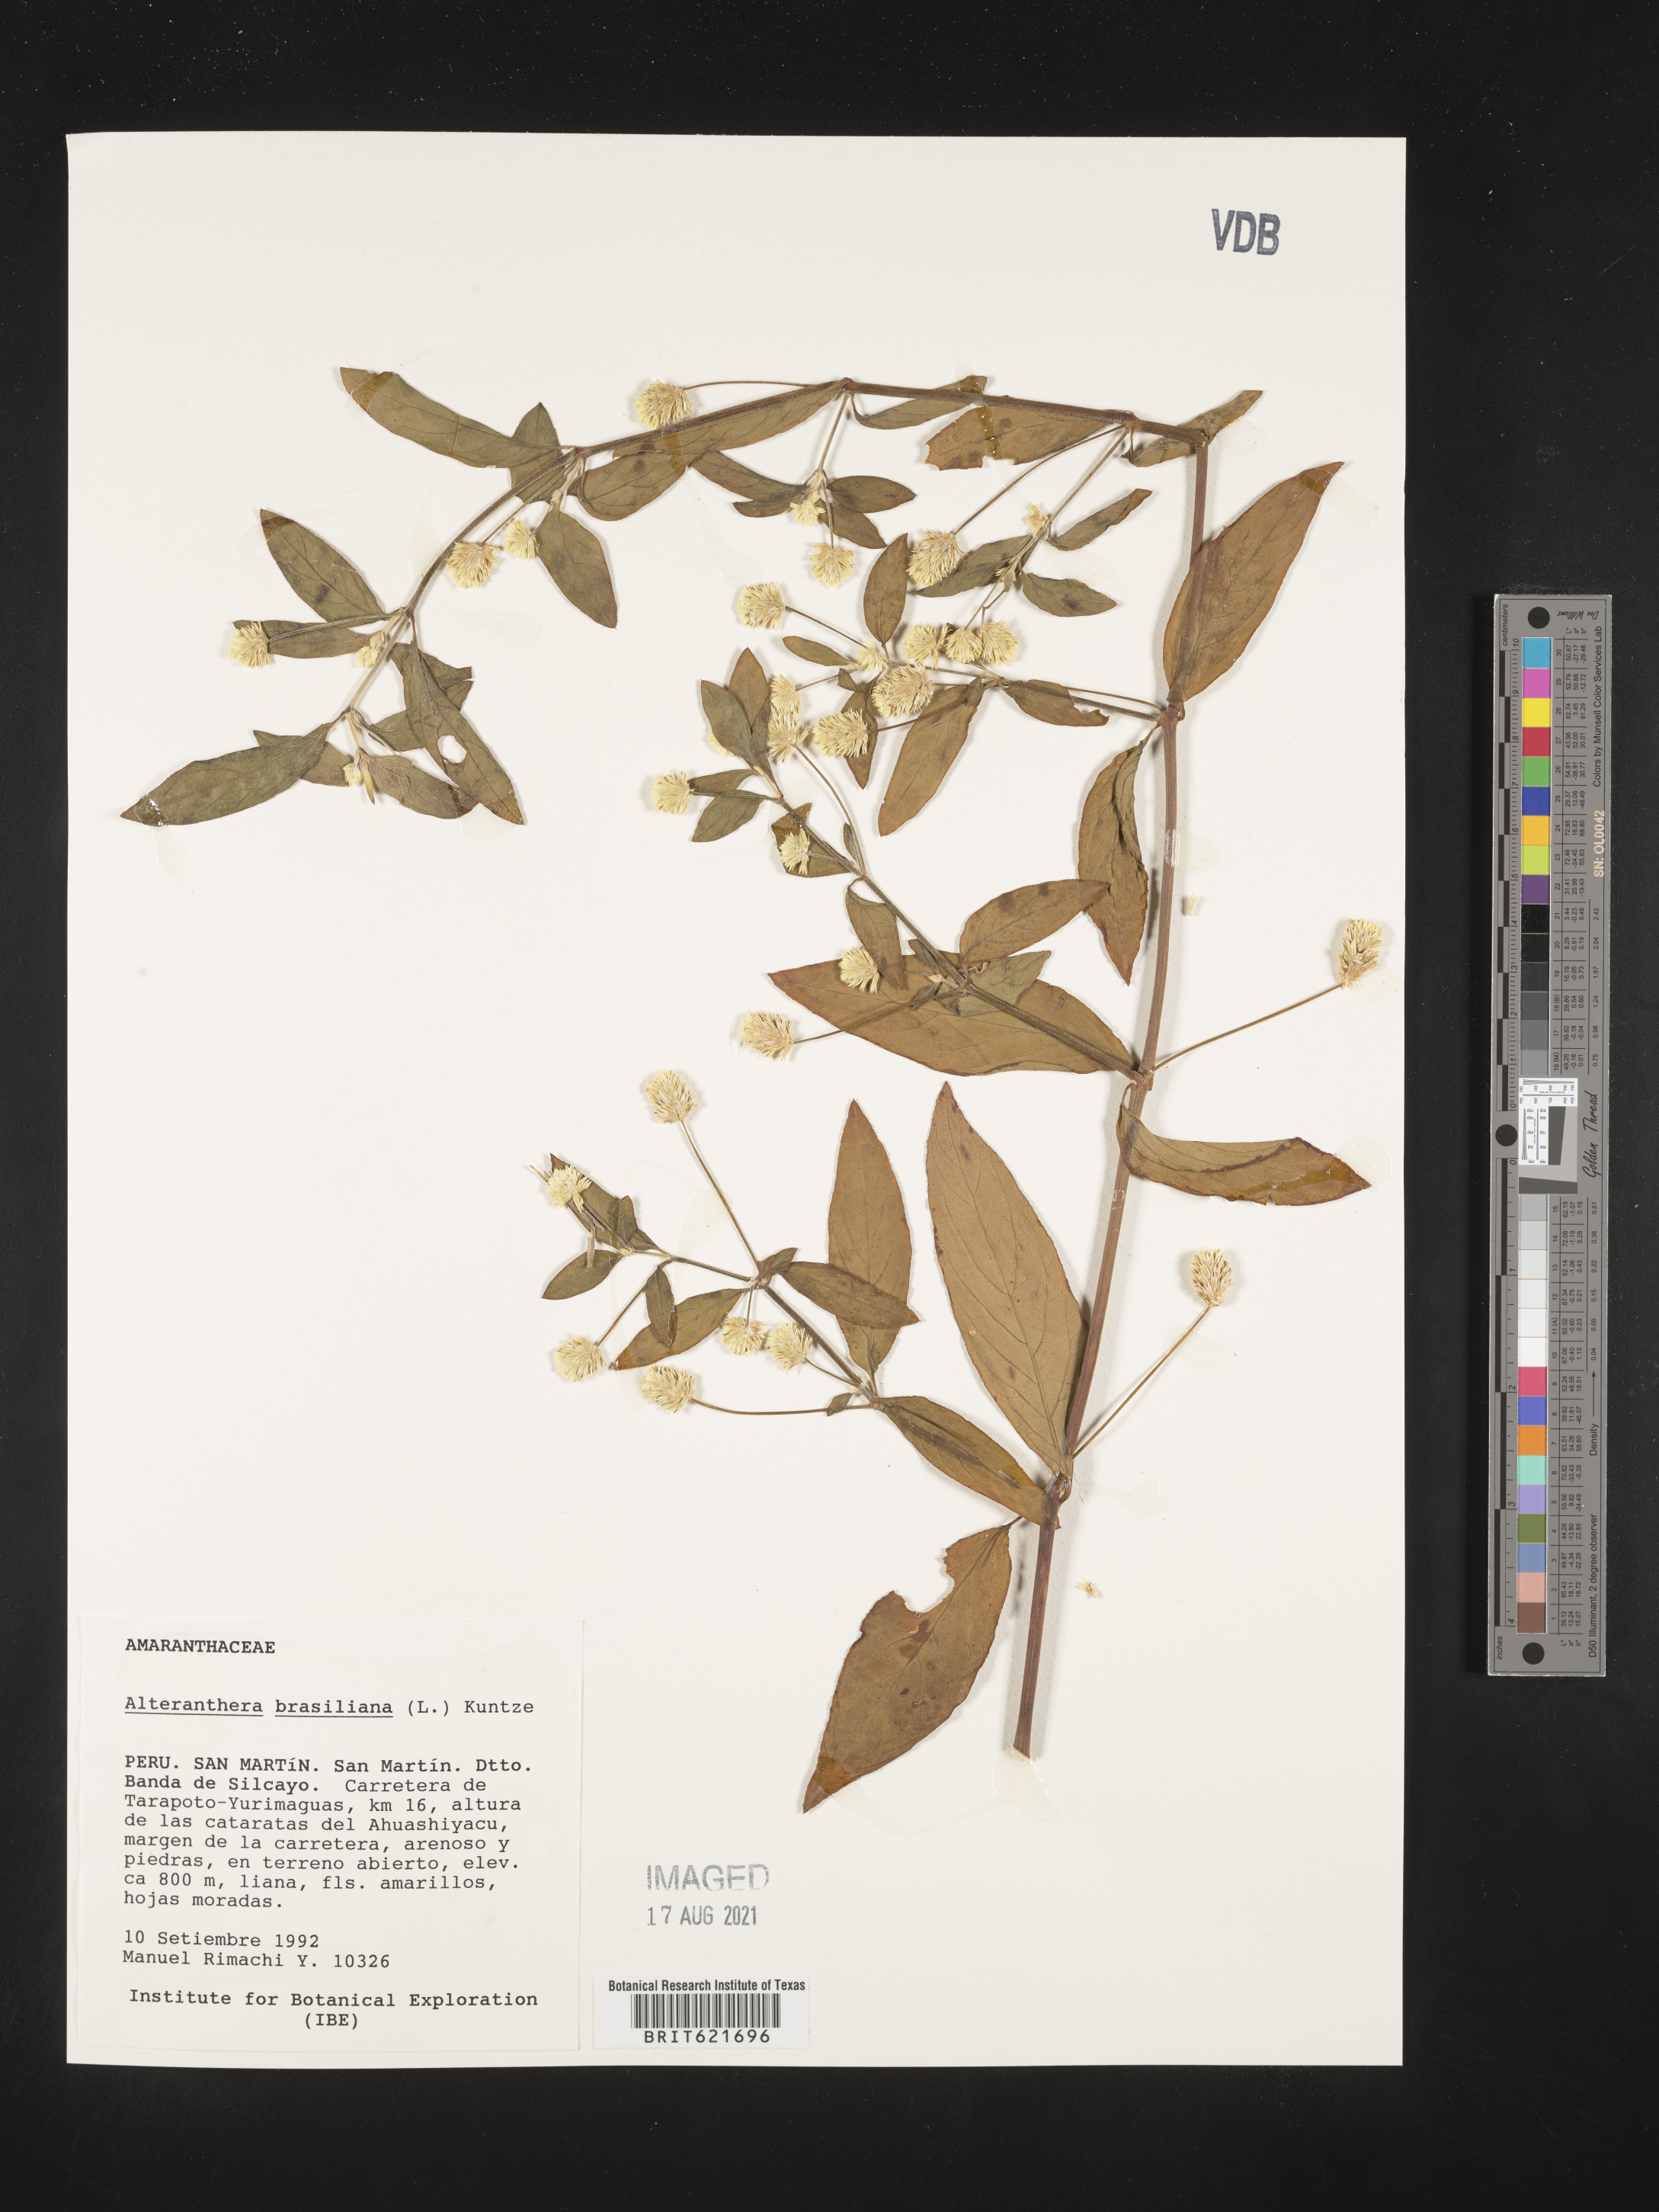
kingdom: Plantae
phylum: Tracheophyta
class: Magnoliopsida
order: Caryophyllales
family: Amaranthaceae
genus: Alternanthera
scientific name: Alternanthera brasiliana
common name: Brazilian joyweed
